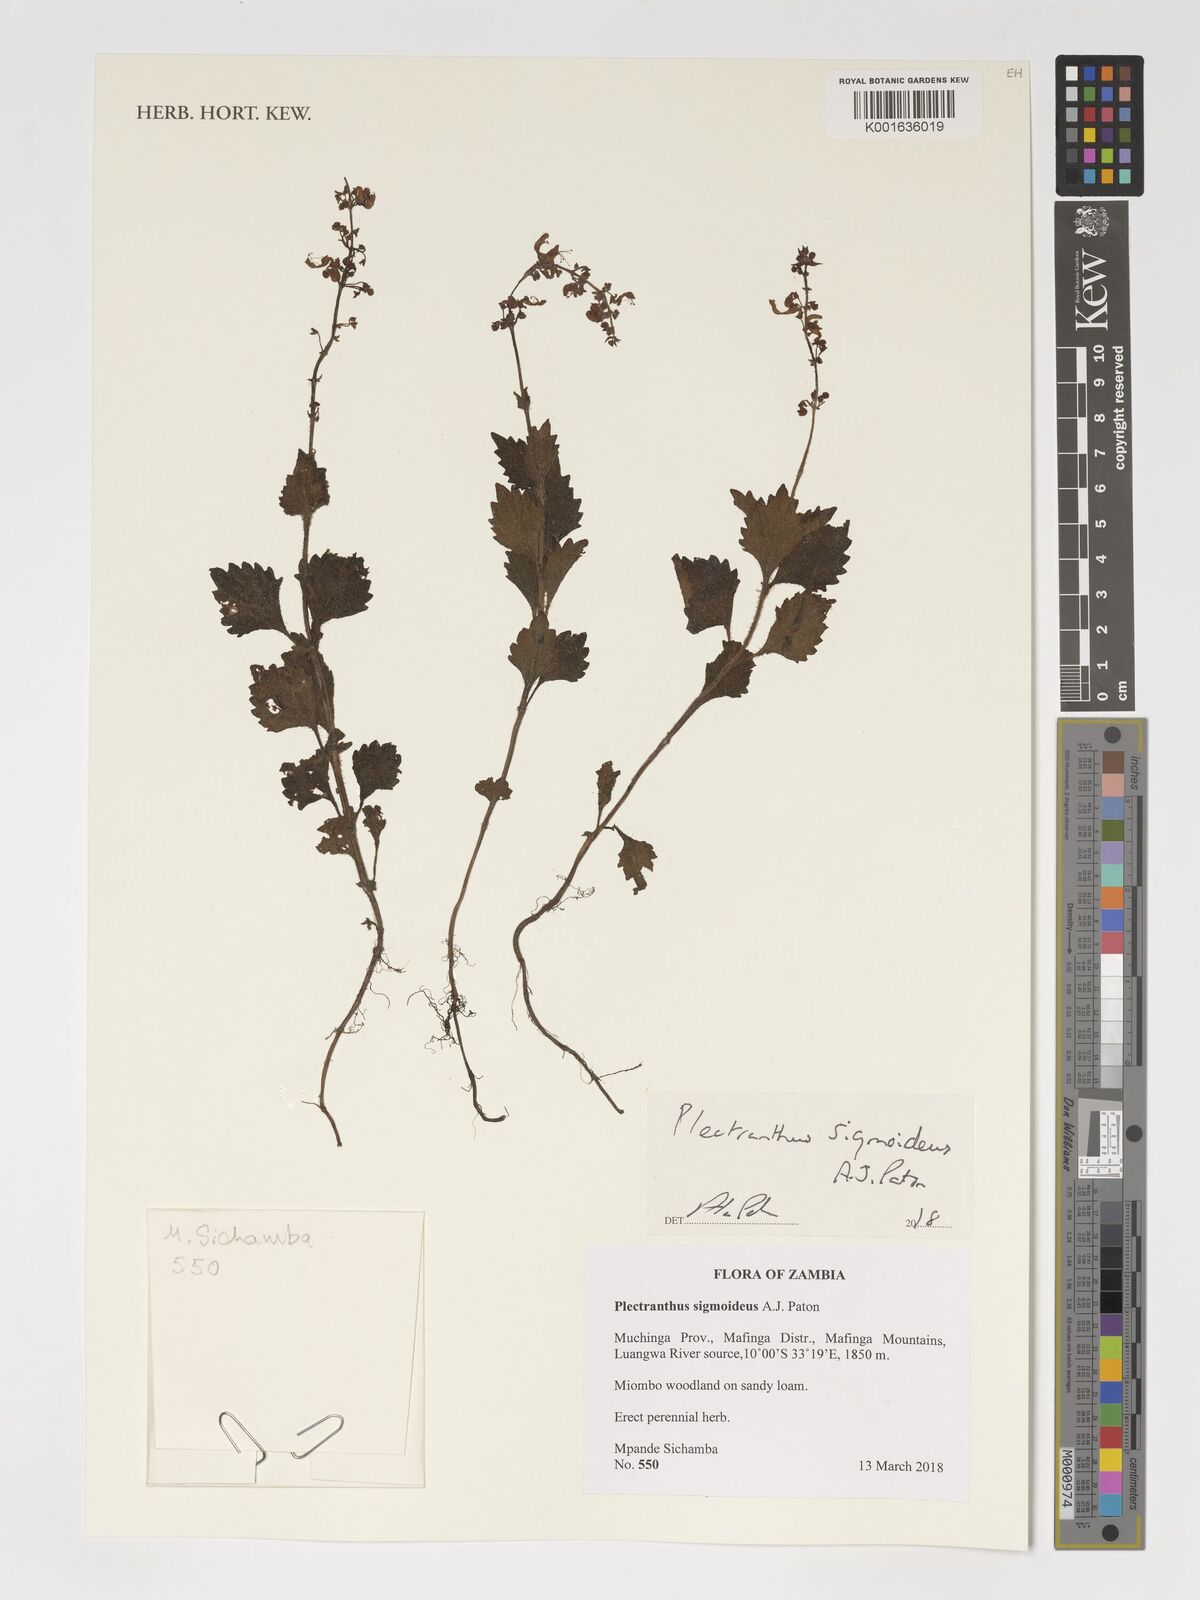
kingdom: Plantae
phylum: Tracheophyta
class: Magnoliopsida
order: Lamiales
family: Lamiaceae
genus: Coleus
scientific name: Coleus sigmoideus
